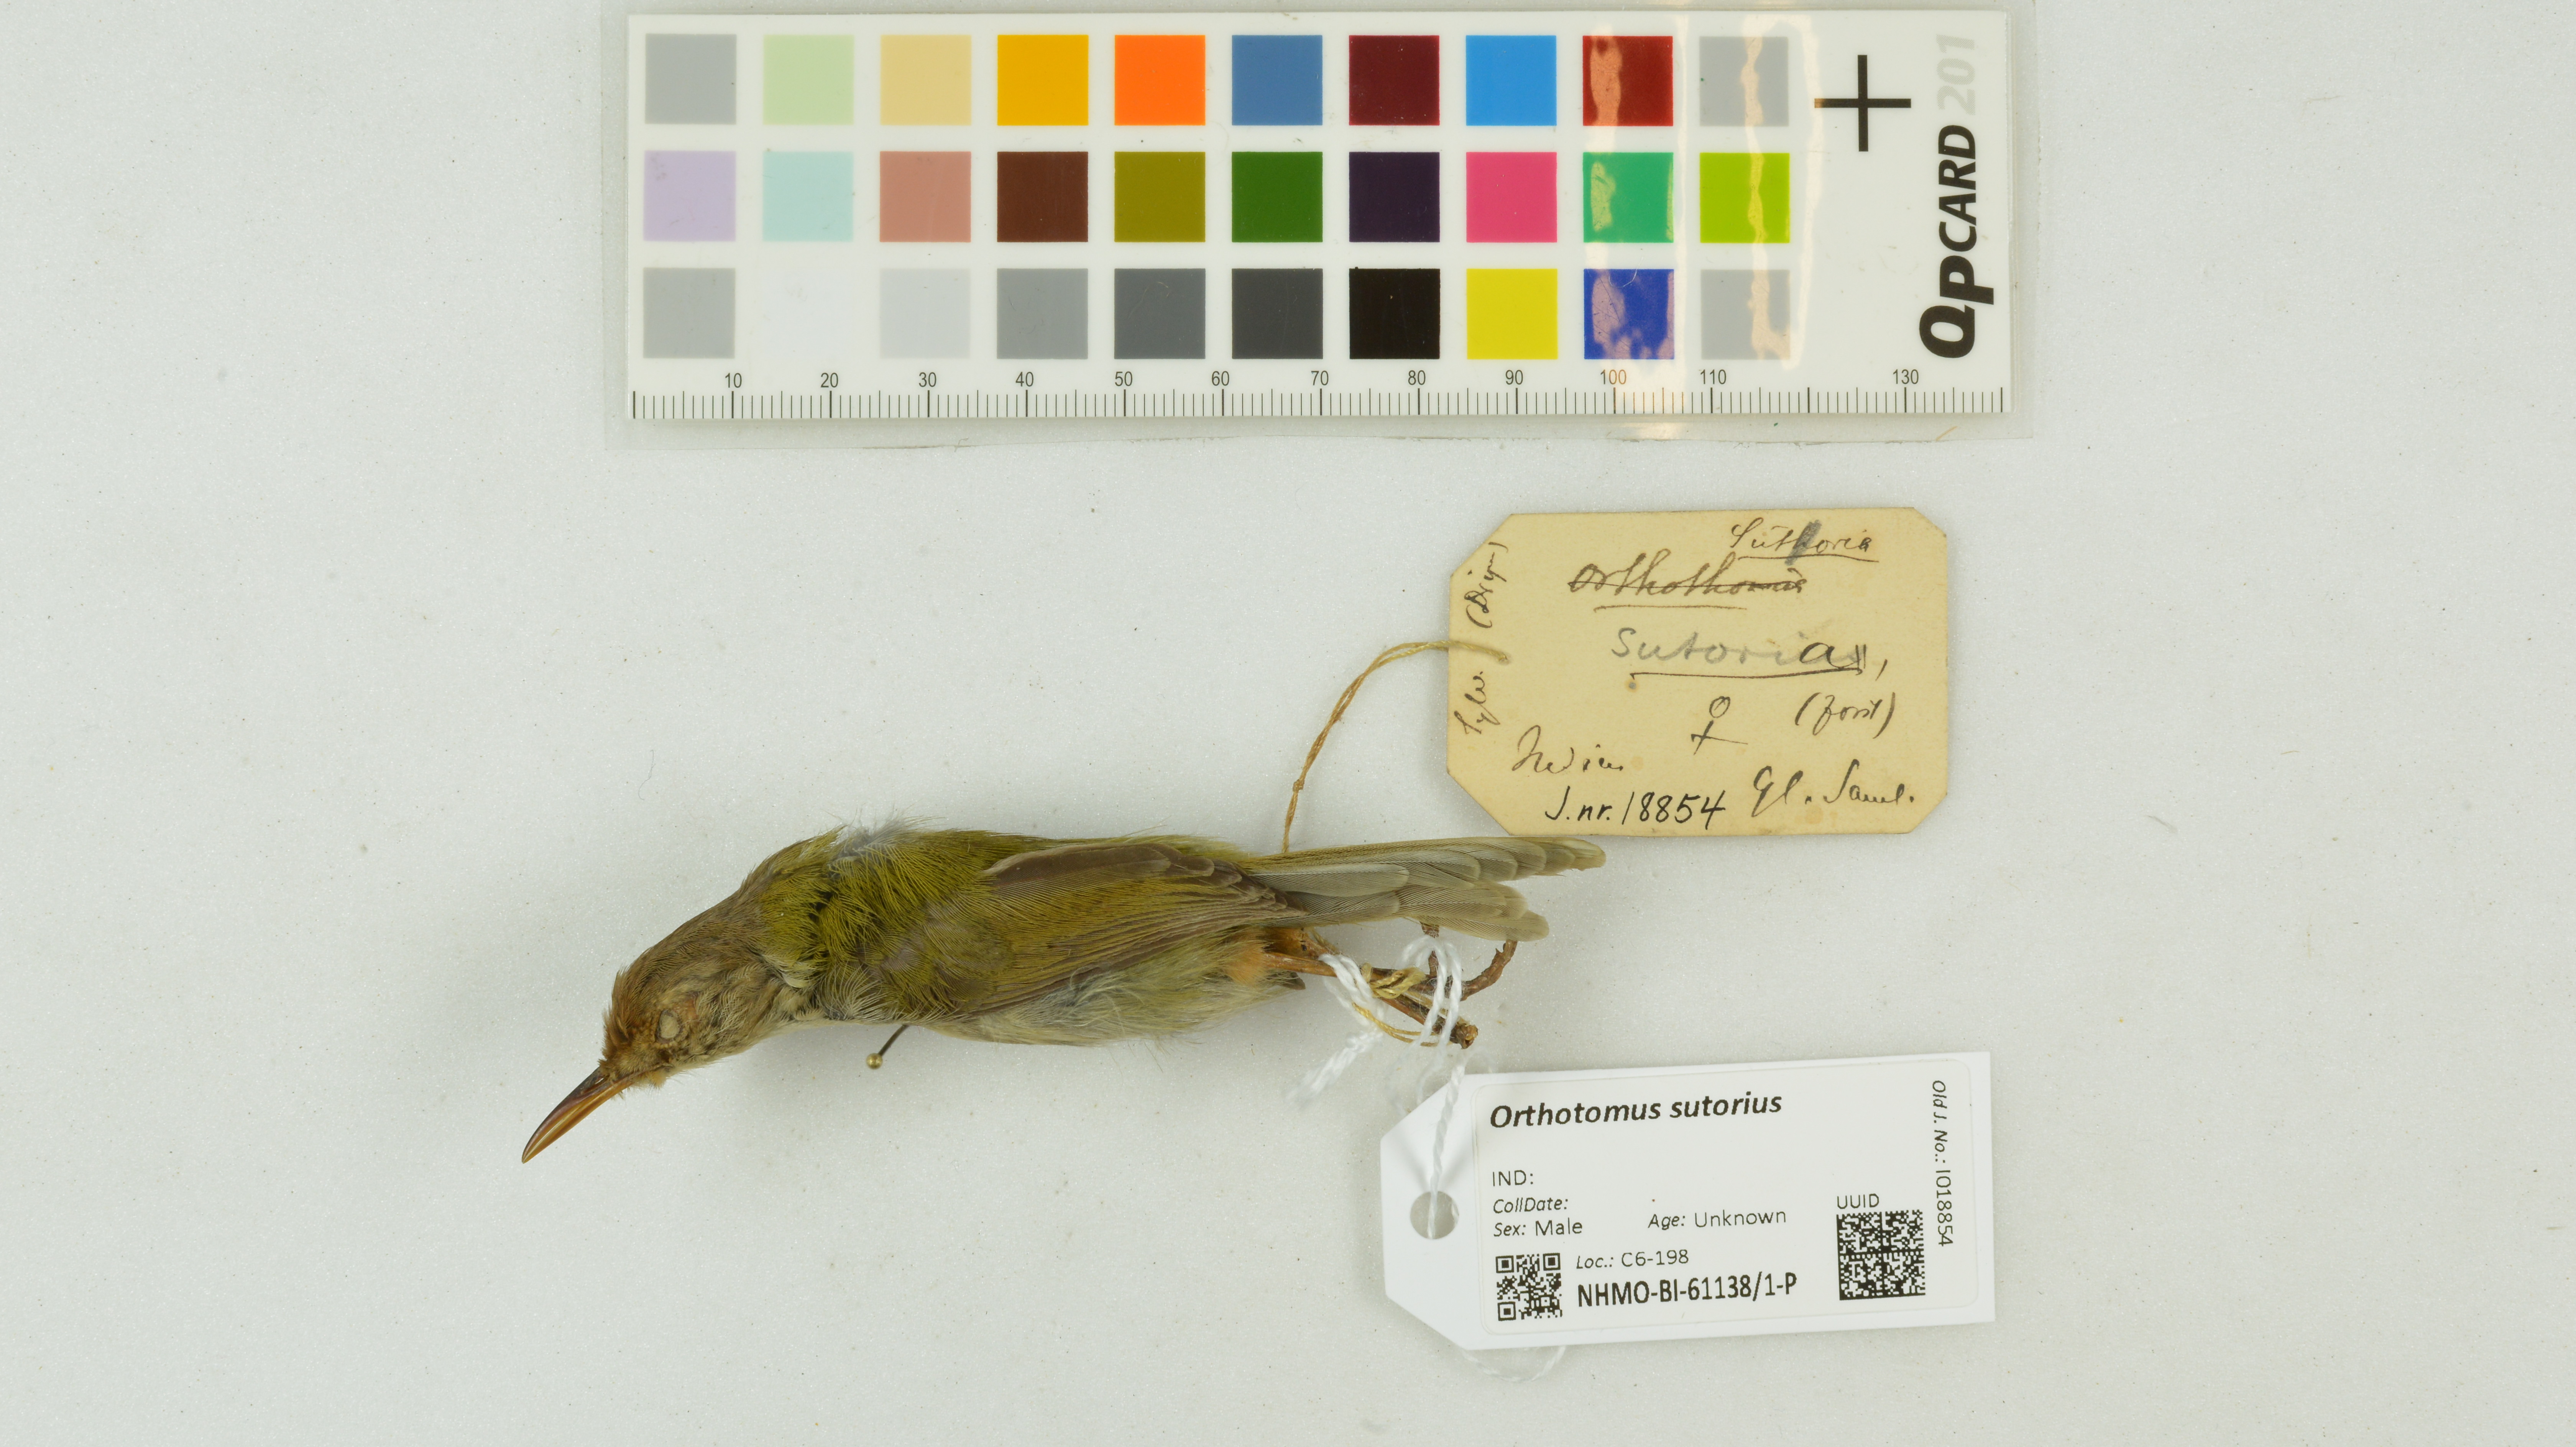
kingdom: Animalia
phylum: Chordata
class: Aves
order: Passeriformes
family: Cisticolidae
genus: Orthotomus
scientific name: Orthotomus sutorius
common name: Common tailorbird
